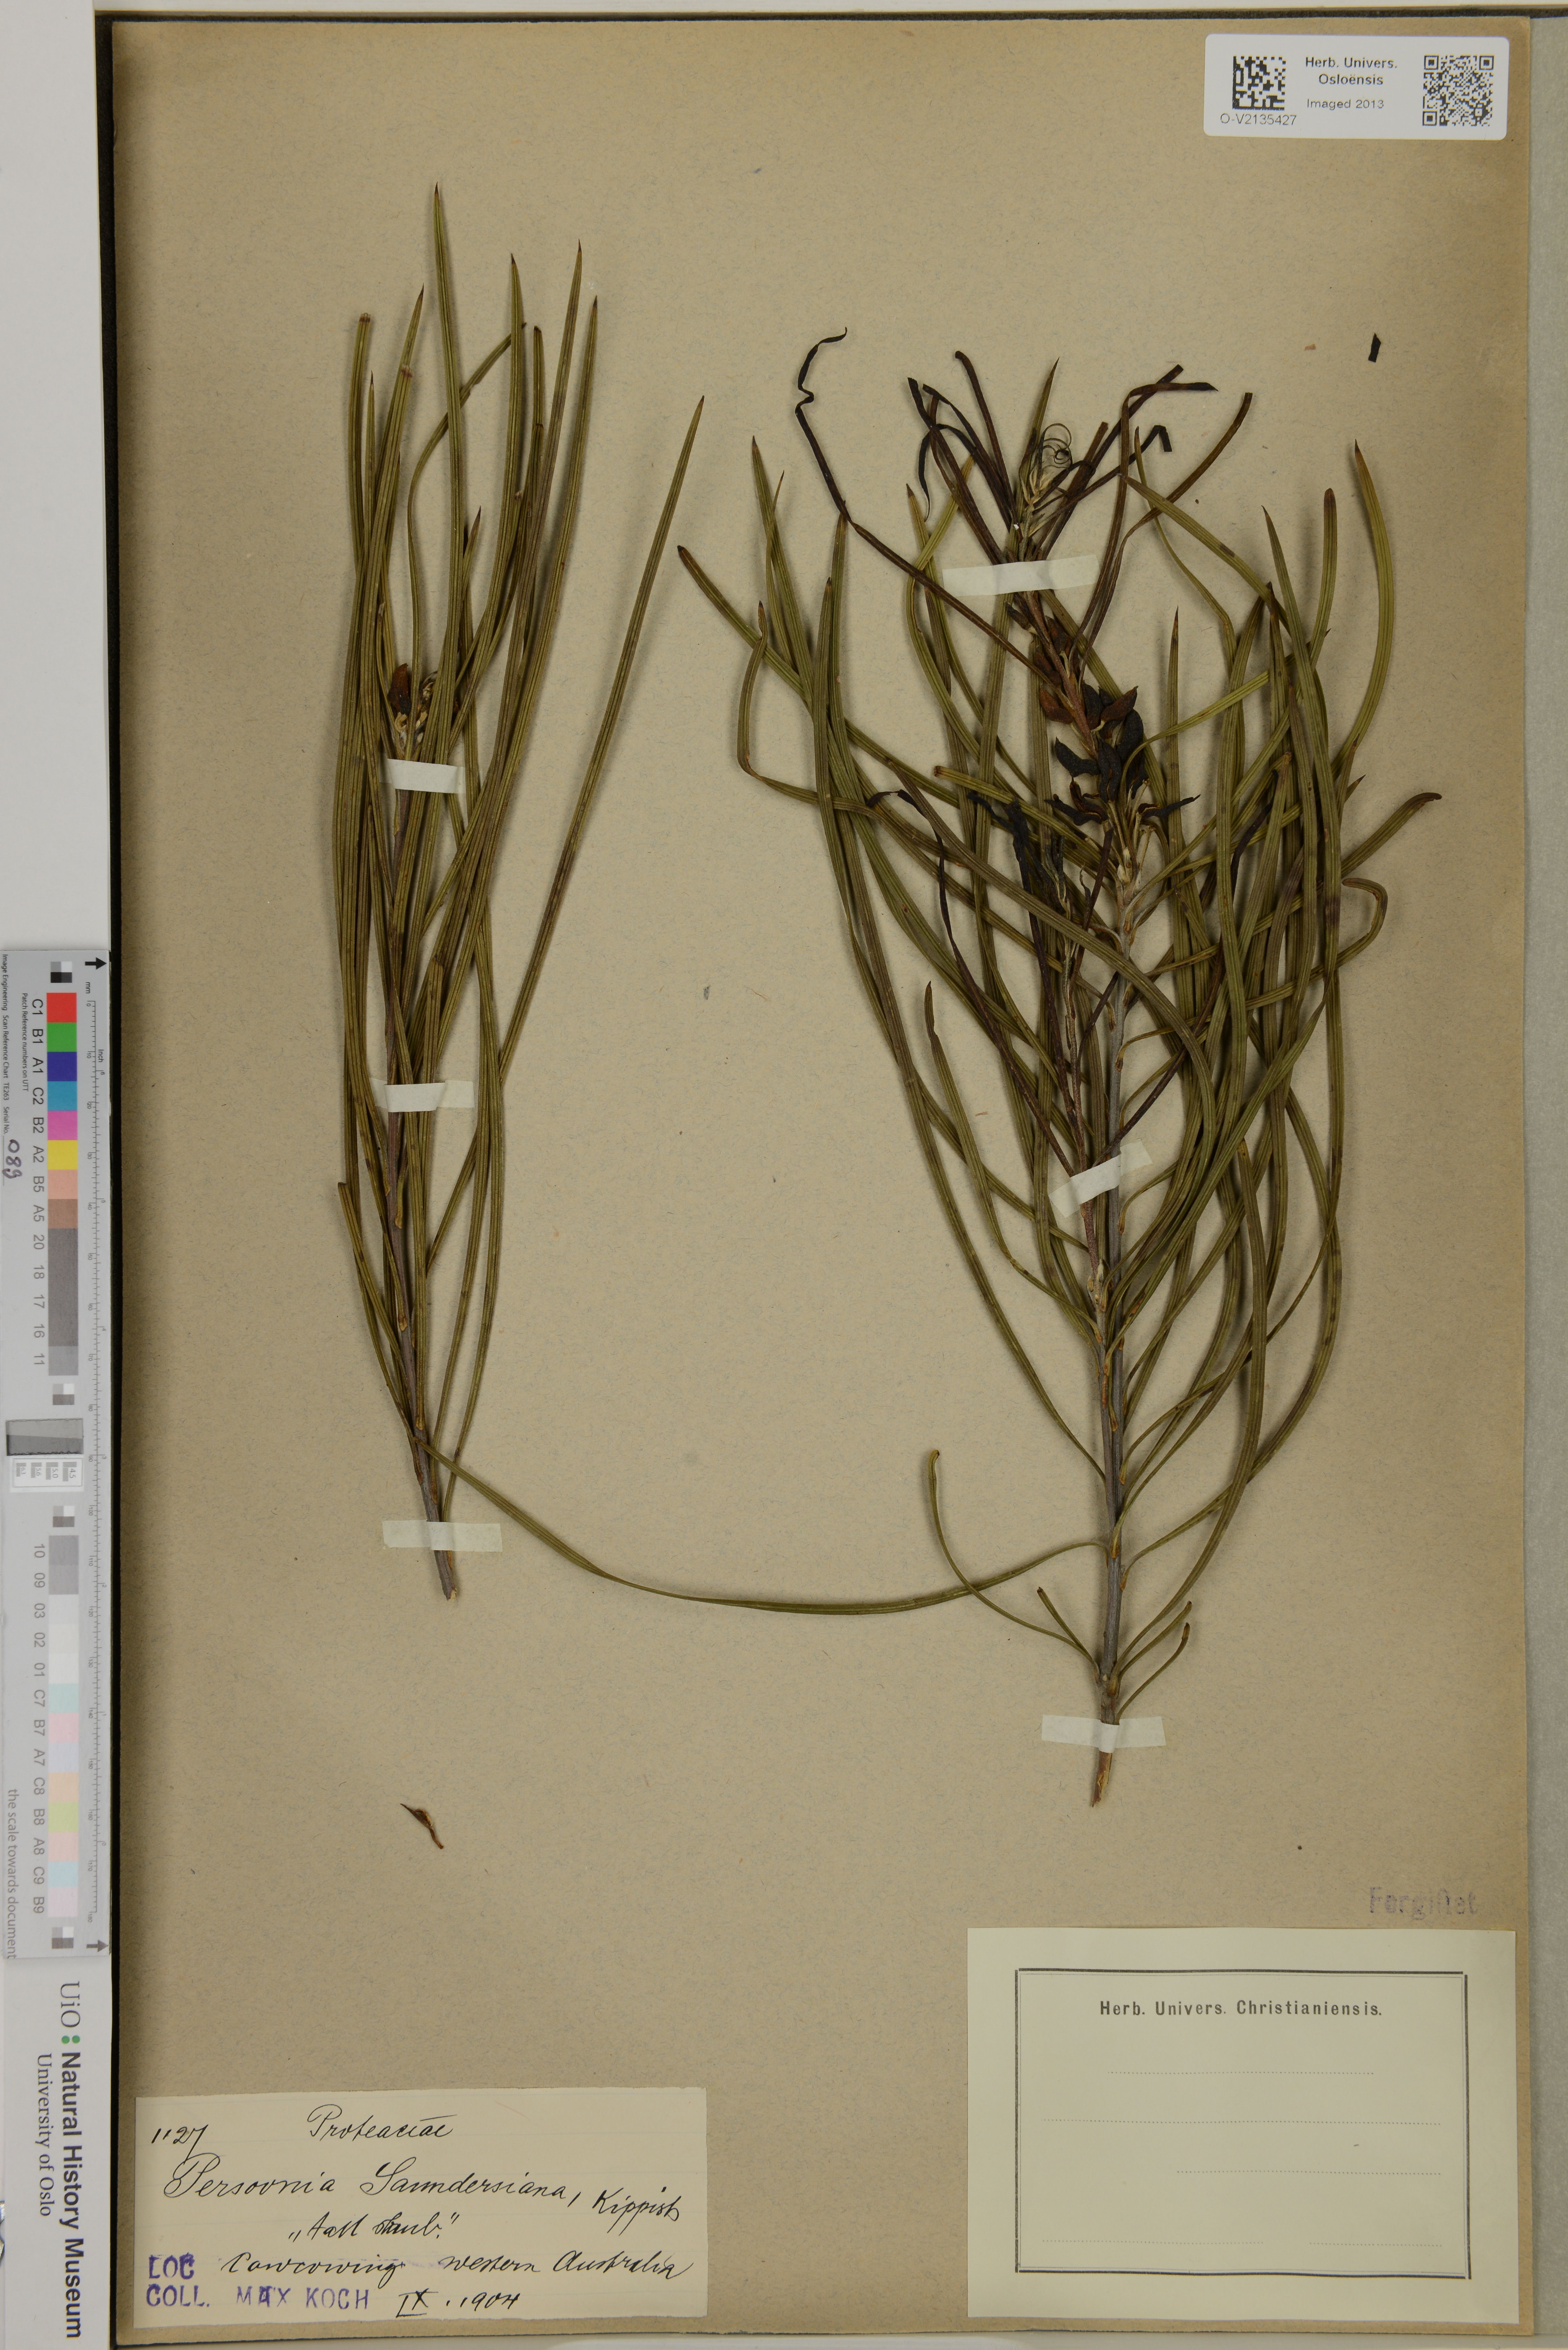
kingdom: Plantae
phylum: Tracheophyta
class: Magnoliopsida
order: Proteales
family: Proteaceae
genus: Persoonia
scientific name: Persoonia saundersiana
